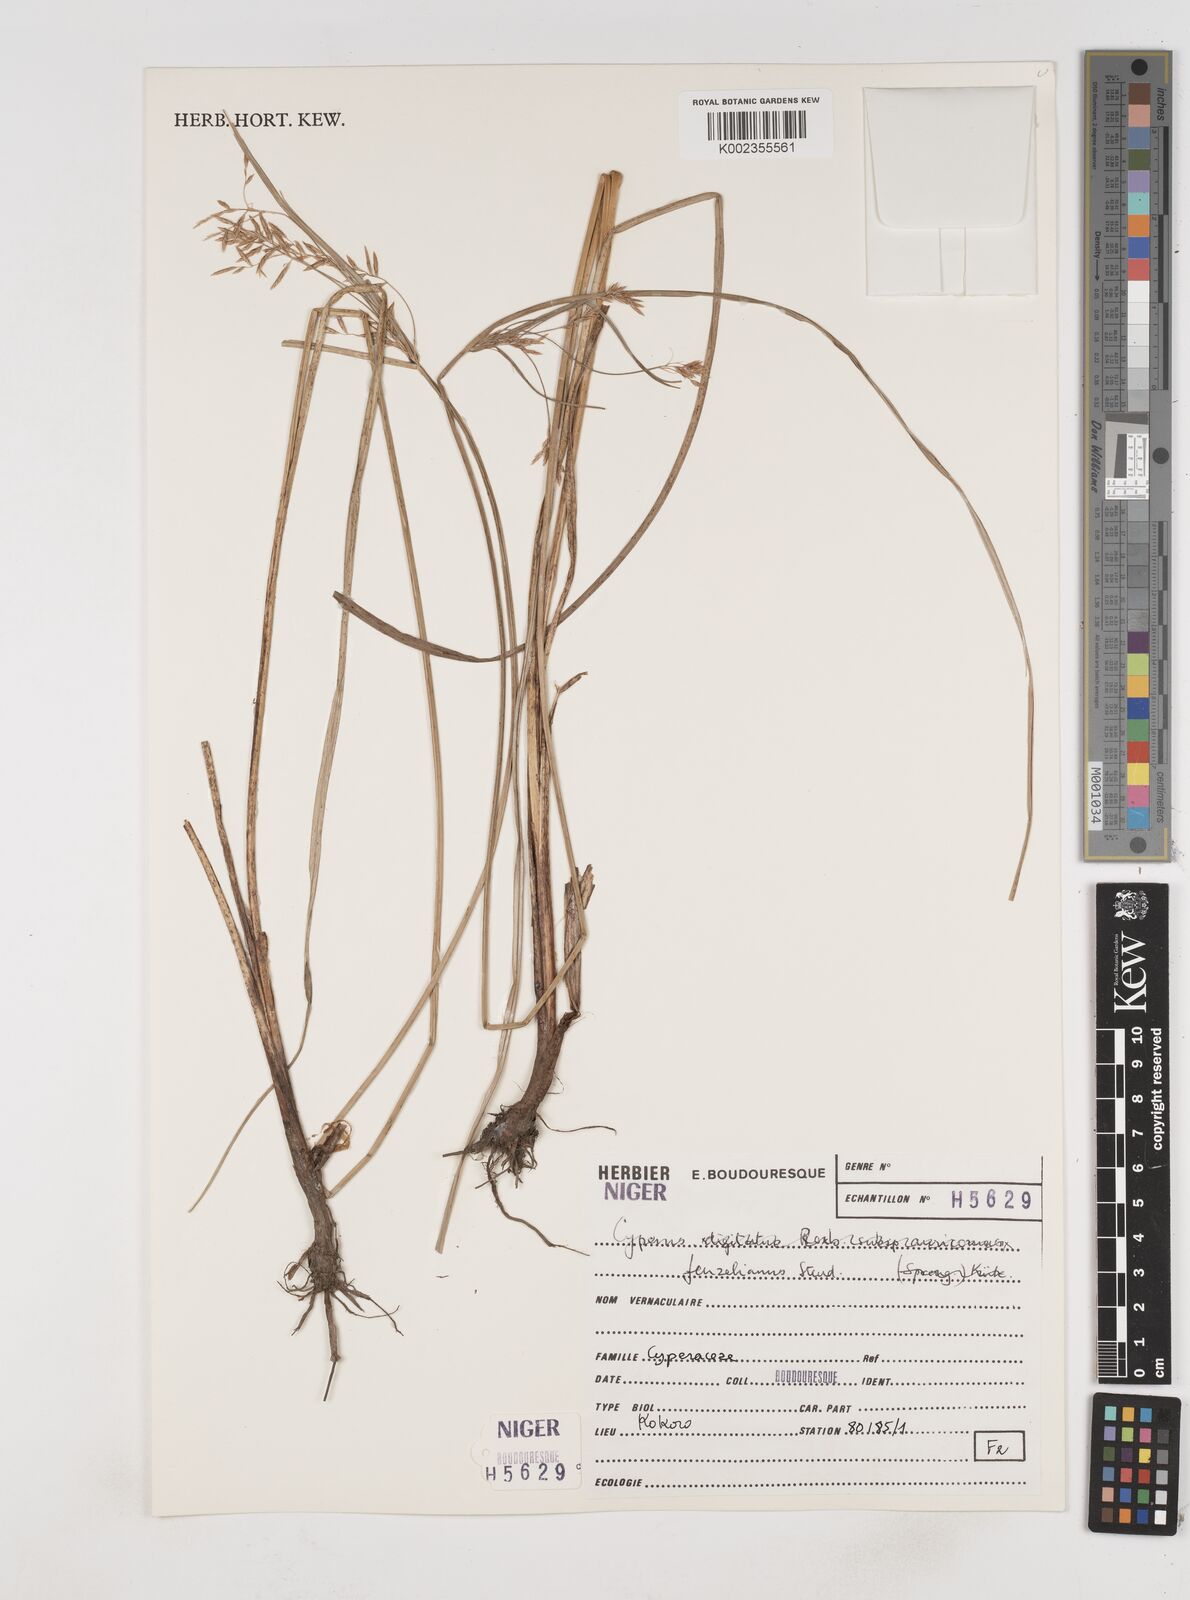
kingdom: Plantae
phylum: Tracheophyta
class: Liliopsida
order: Poales
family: Cyperaceae
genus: Cyperus
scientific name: Cyperus longus
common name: Galingale
